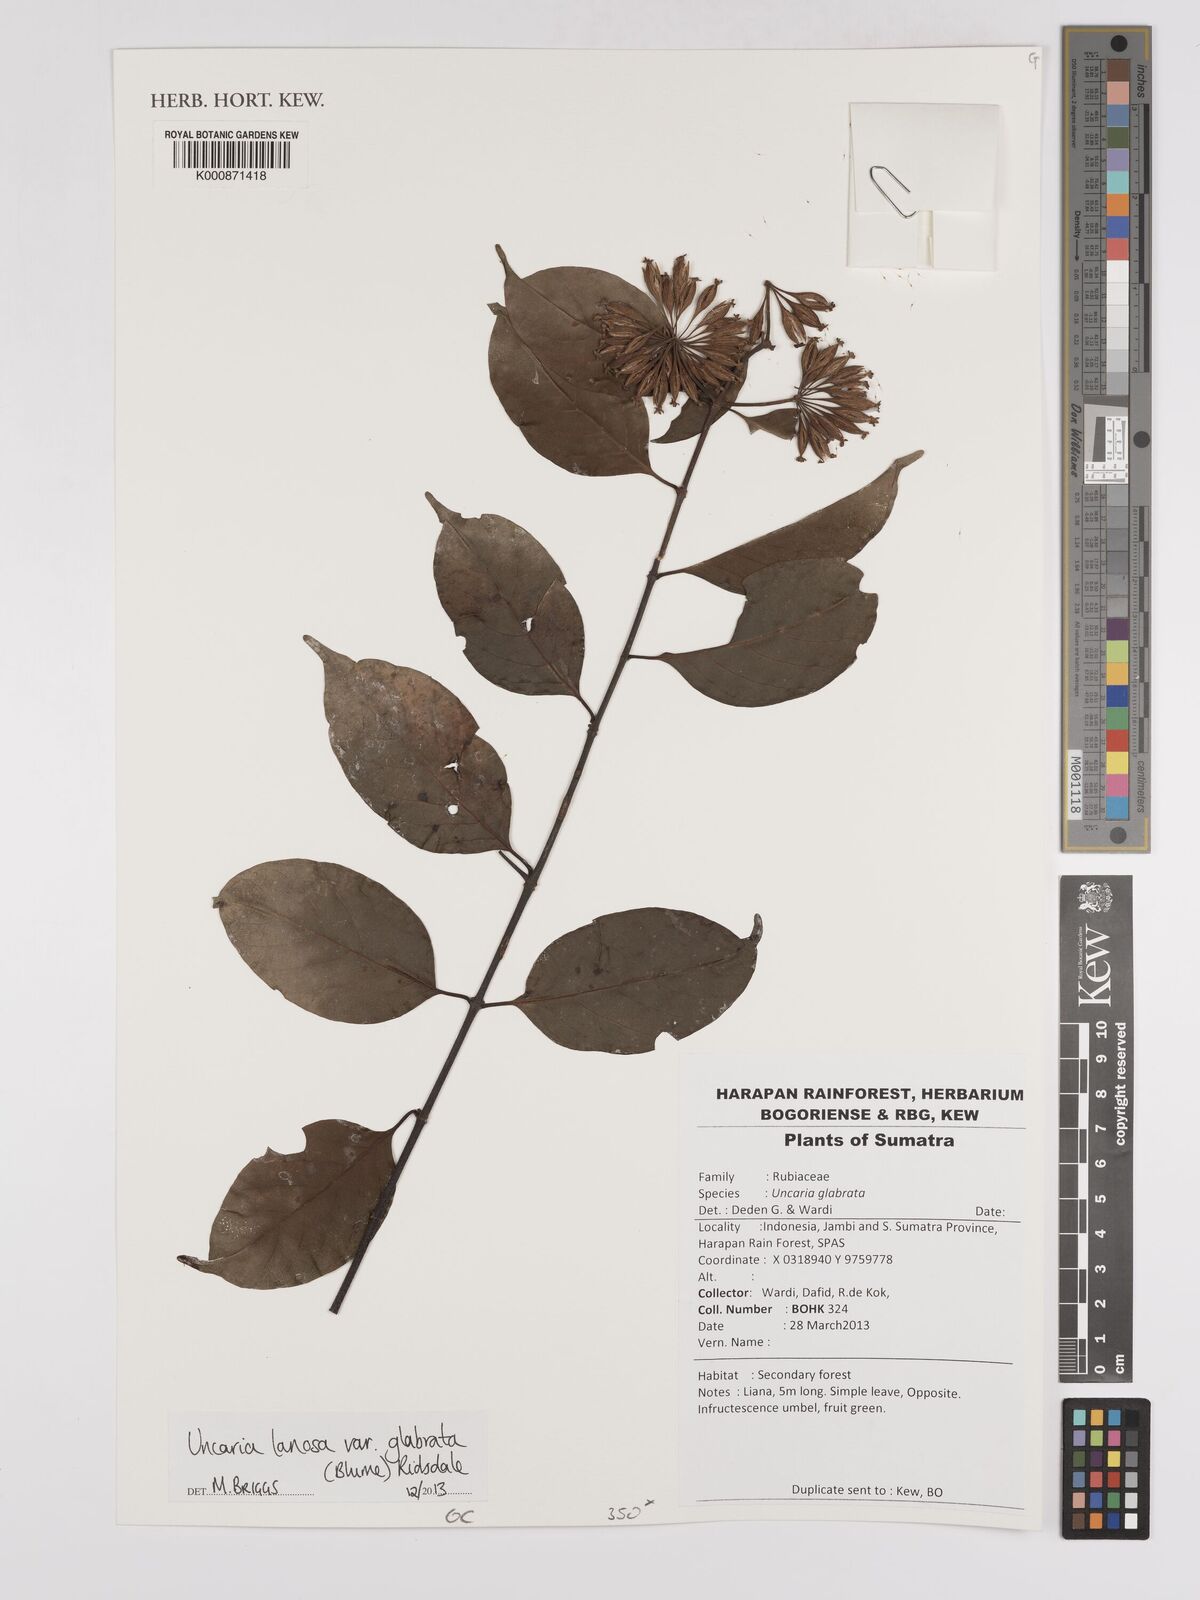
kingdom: Plantae
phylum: Tracheophyta
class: Magnoliopsida
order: Gentianales
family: Rubiaceae
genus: Uncaria
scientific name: Uncaria lanosa
